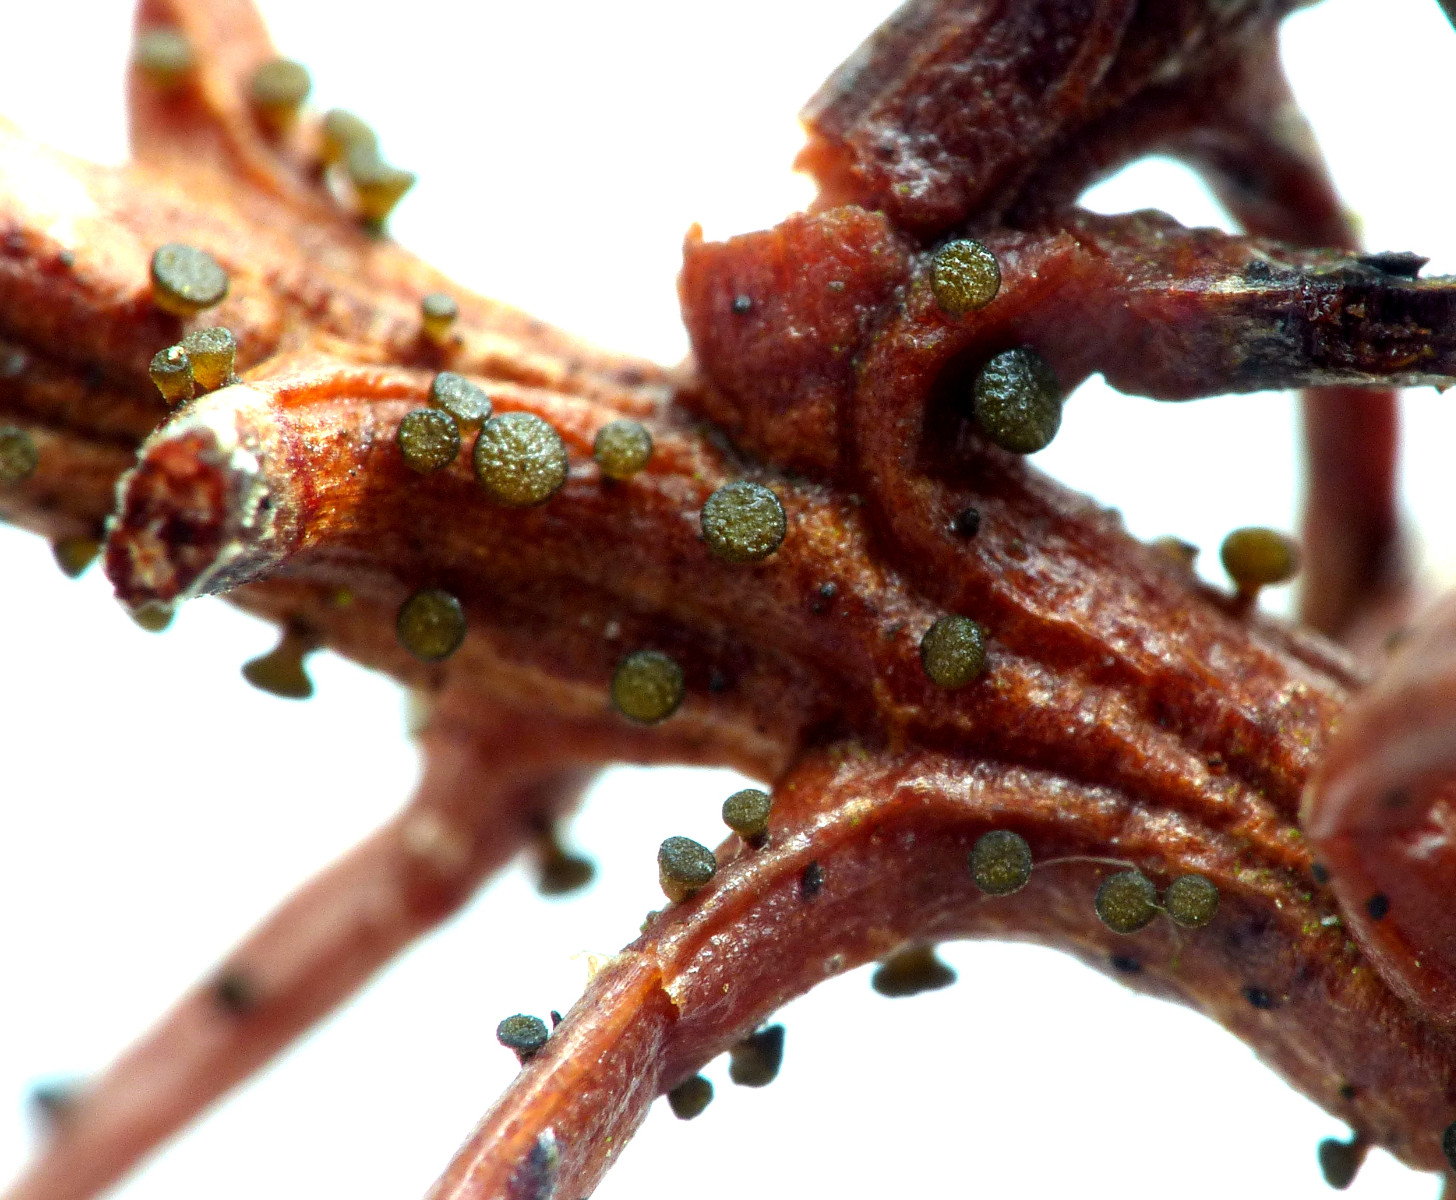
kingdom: Fungi
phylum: Ascomycota
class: Leotiomycetes
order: Helotiales
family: Gelatinodiscaceae
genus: Chloroscypha
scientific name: Chloroscypha seaveri
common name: kortstilket cypresskive
